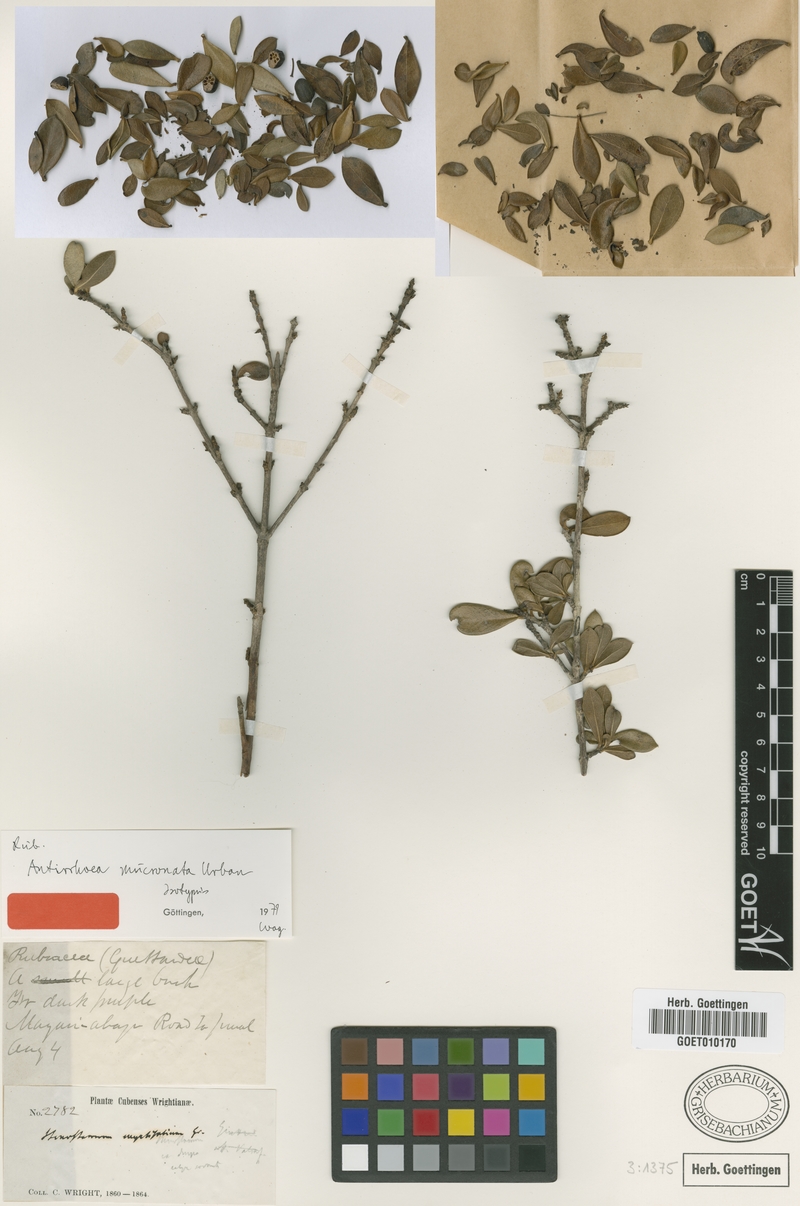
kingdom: Plantae
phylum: Tracheophyta
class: Magnoliopsida
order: Gentianales
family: Rubiaceae
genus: Stenostomum
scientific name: Stenostomum mucronatum
